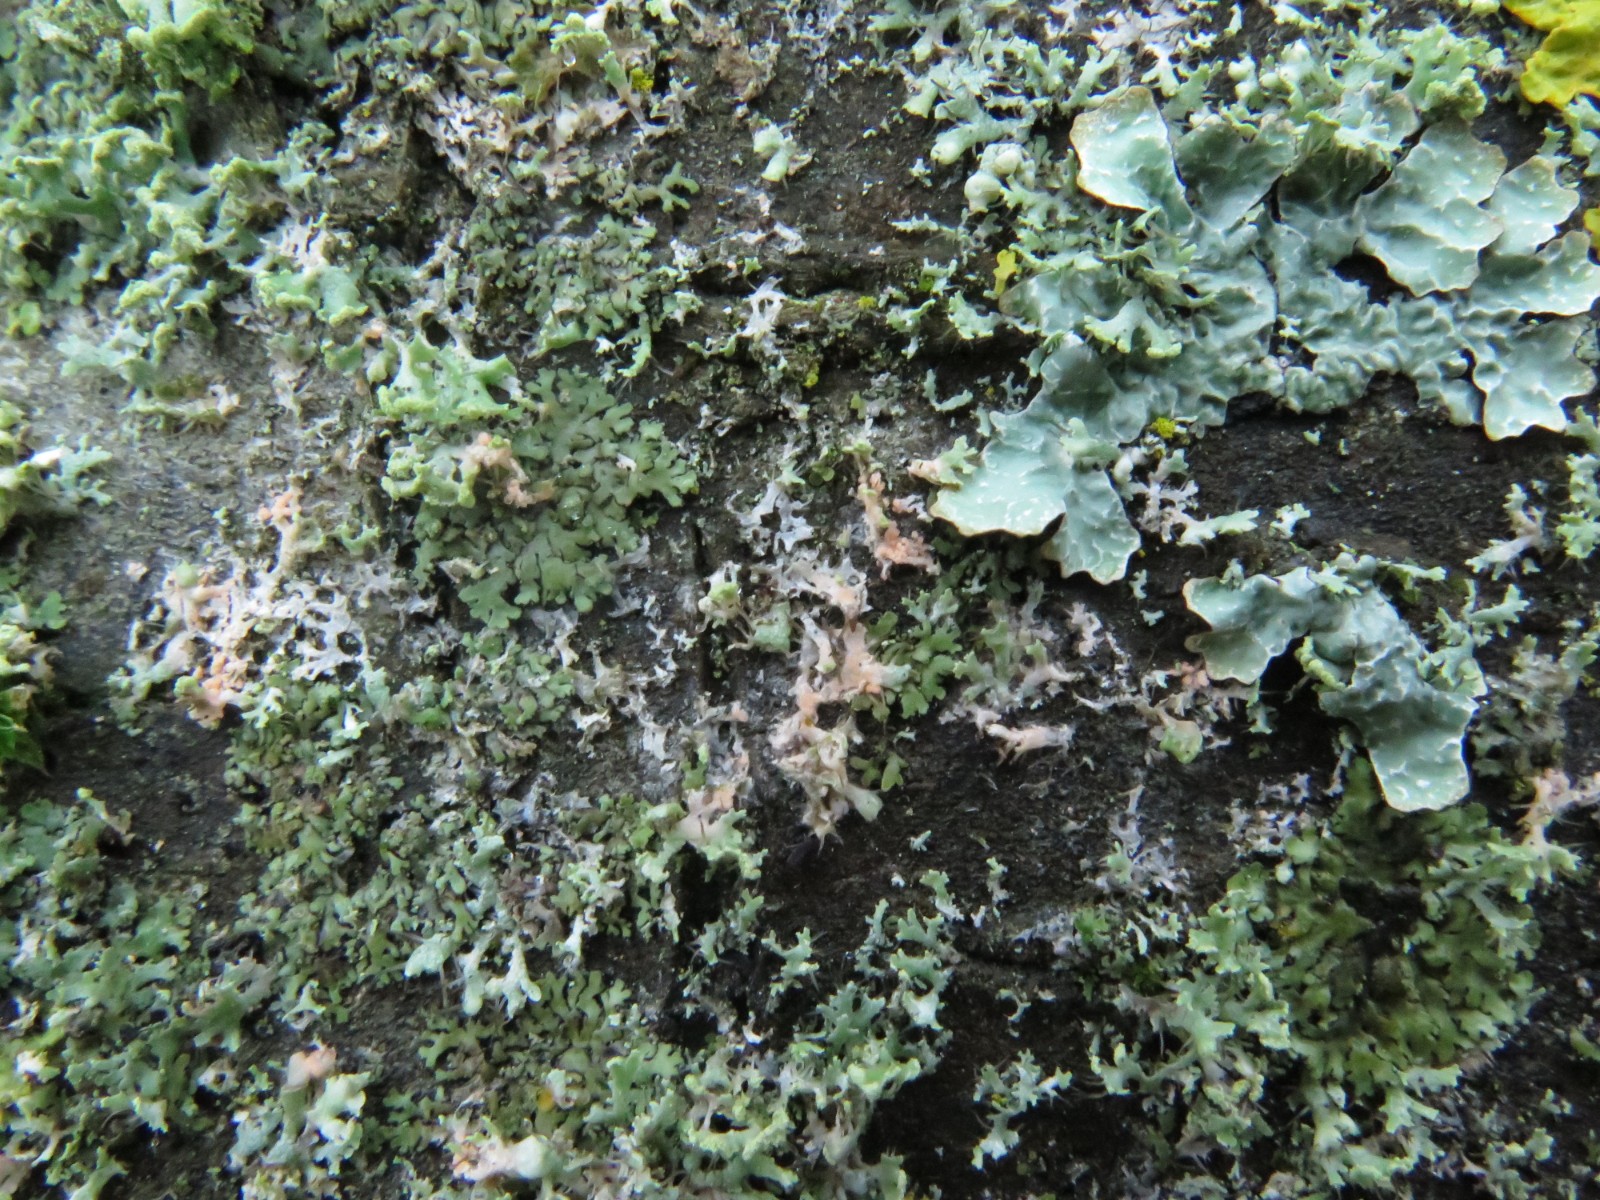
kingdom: Fungi
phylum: Basidiomycota
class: Agaricomycetes
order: Corticiales
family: Corticiaceae
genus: Erythricium
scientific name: Erythricium aurantiacum
